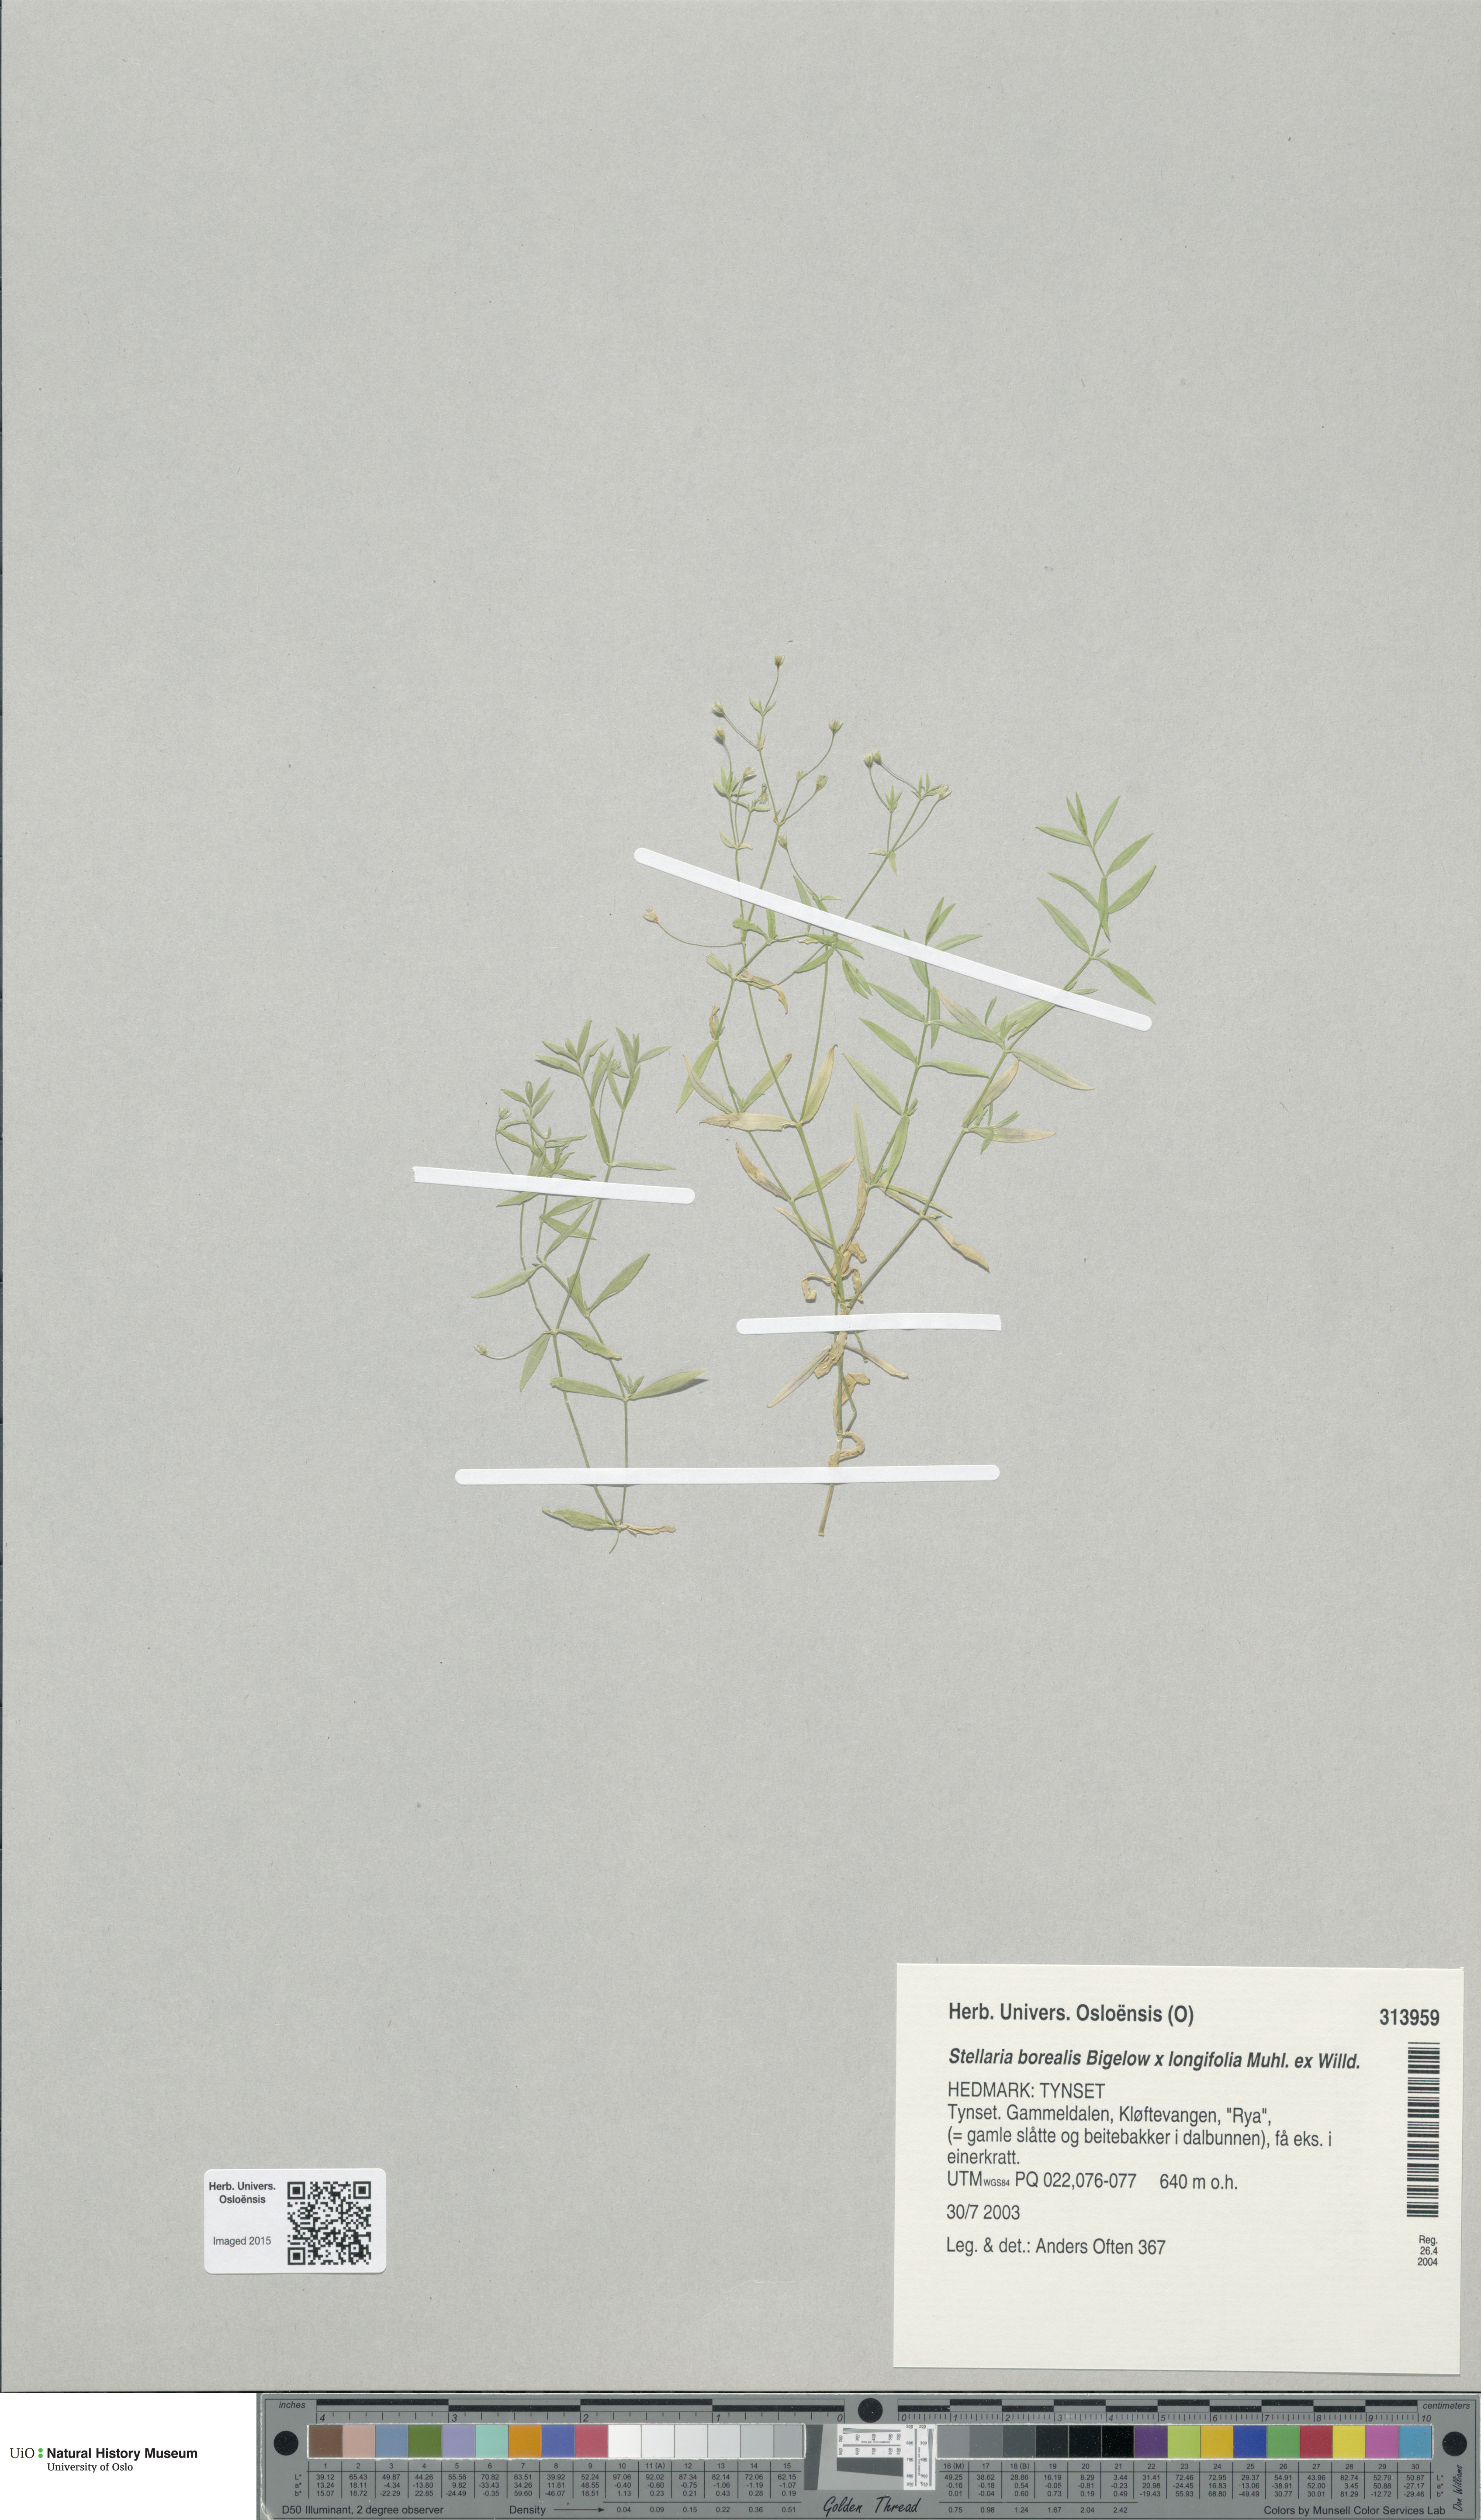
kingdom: Plantae
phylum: Tracheophyta
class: Magnoliopsida
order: Caryophyllales
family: Caryophyllaceae
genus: Stellaria
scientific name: Stellaria
